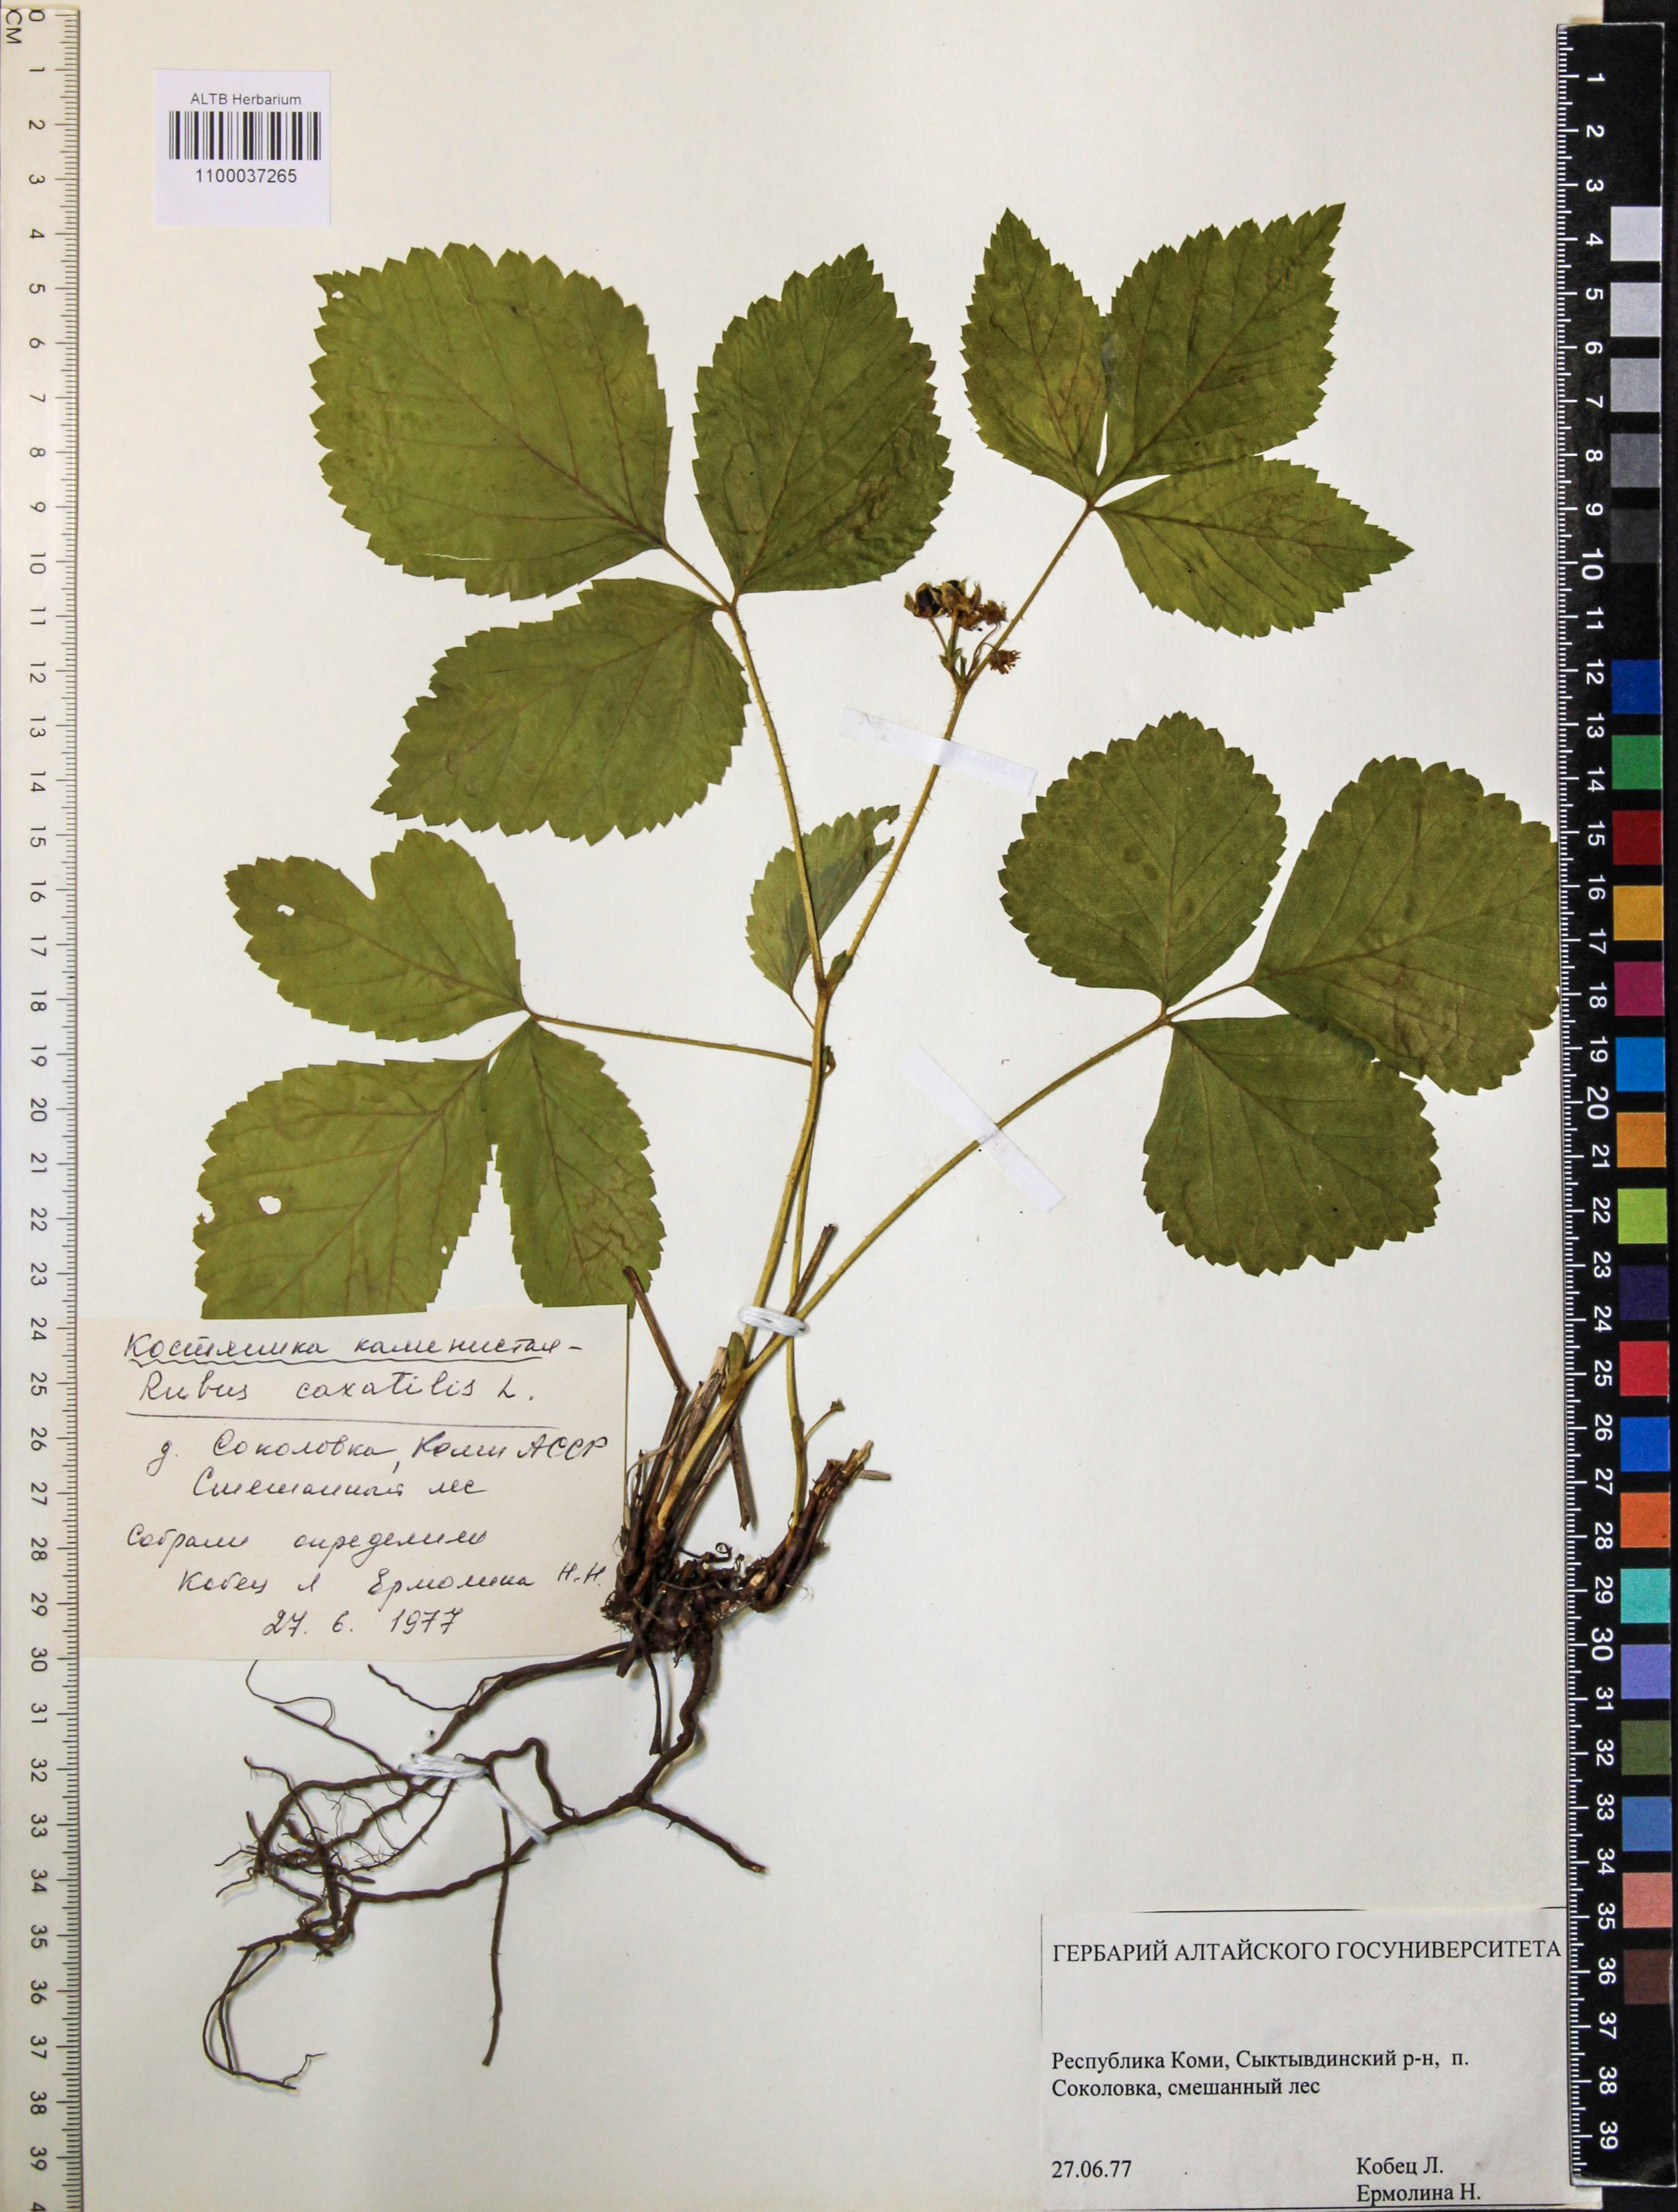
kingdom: Plantae
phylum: Tracheophyta
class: Magnoliopsida
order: Rosales
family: Rosaceae
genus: Rubus
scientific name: Rubus saxatilis
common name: Stone bramble
